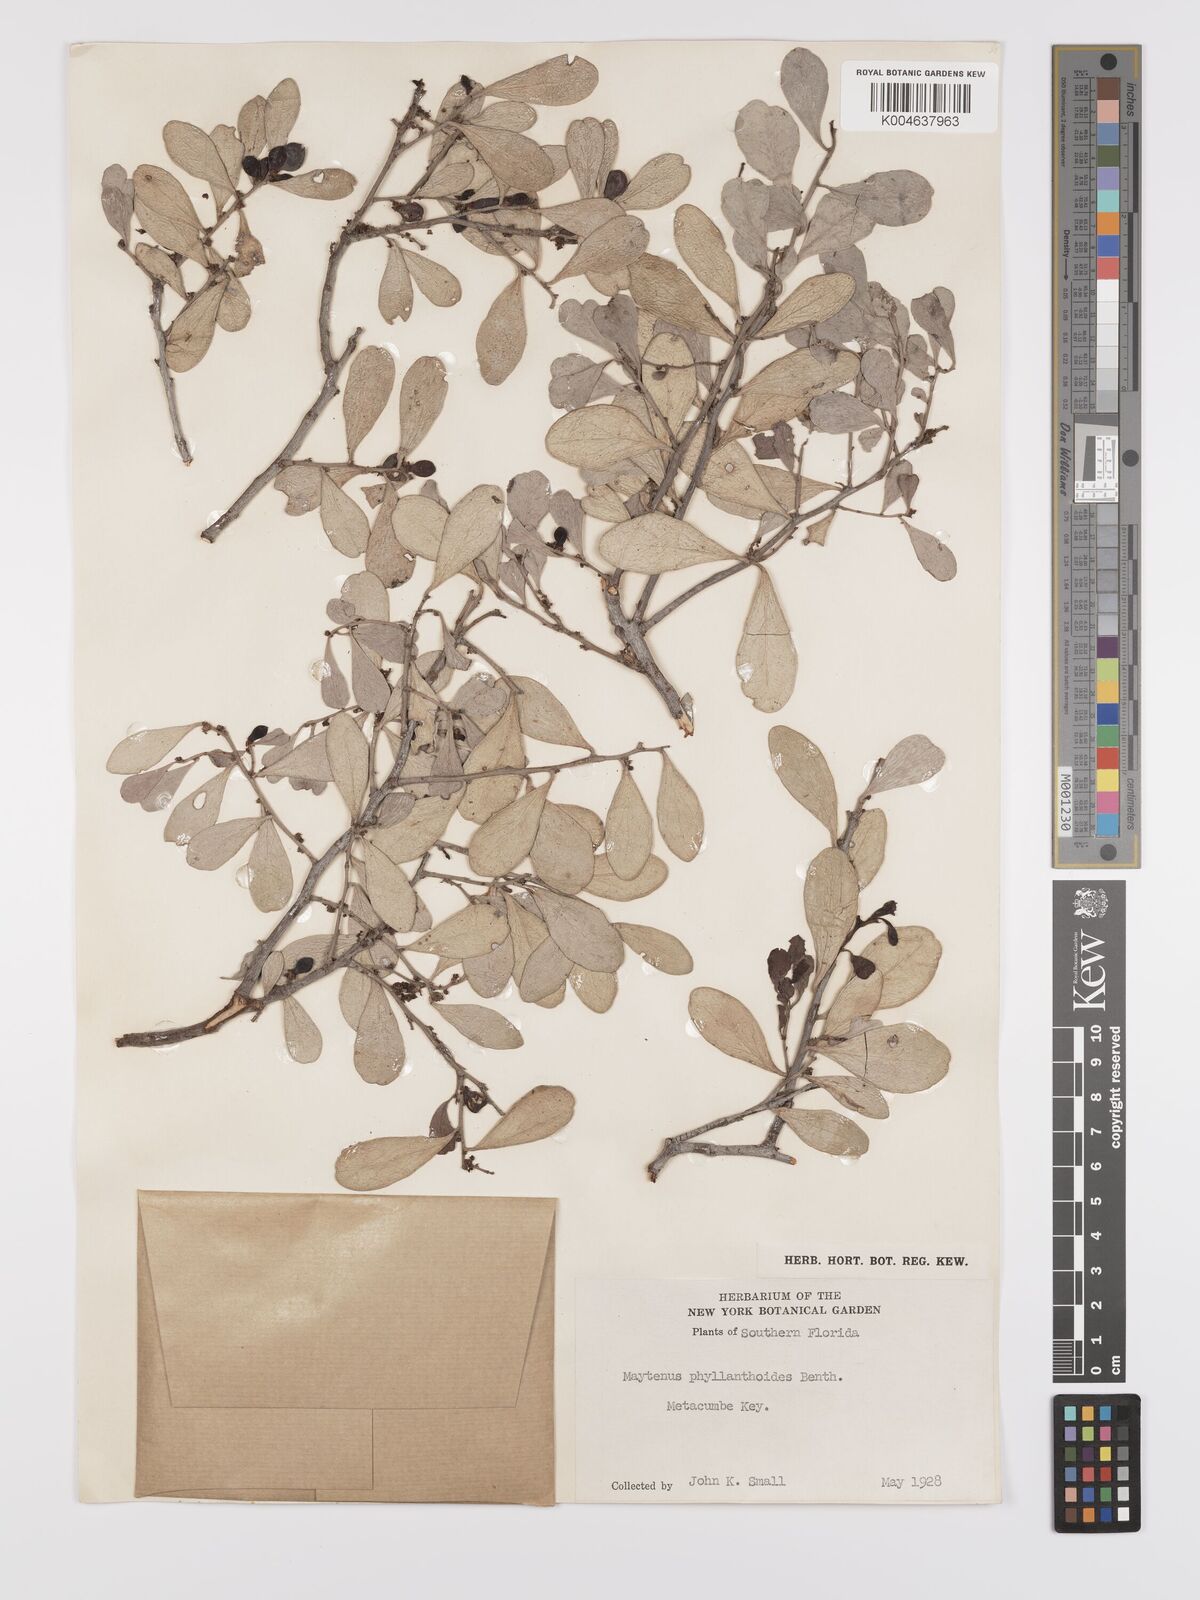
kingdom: Plantae
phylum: Tracheophyta
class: Magnoliopsida
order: Celastrales
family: Celastraceae
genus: Tricerma
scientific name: Tricerma phyllanthoides
